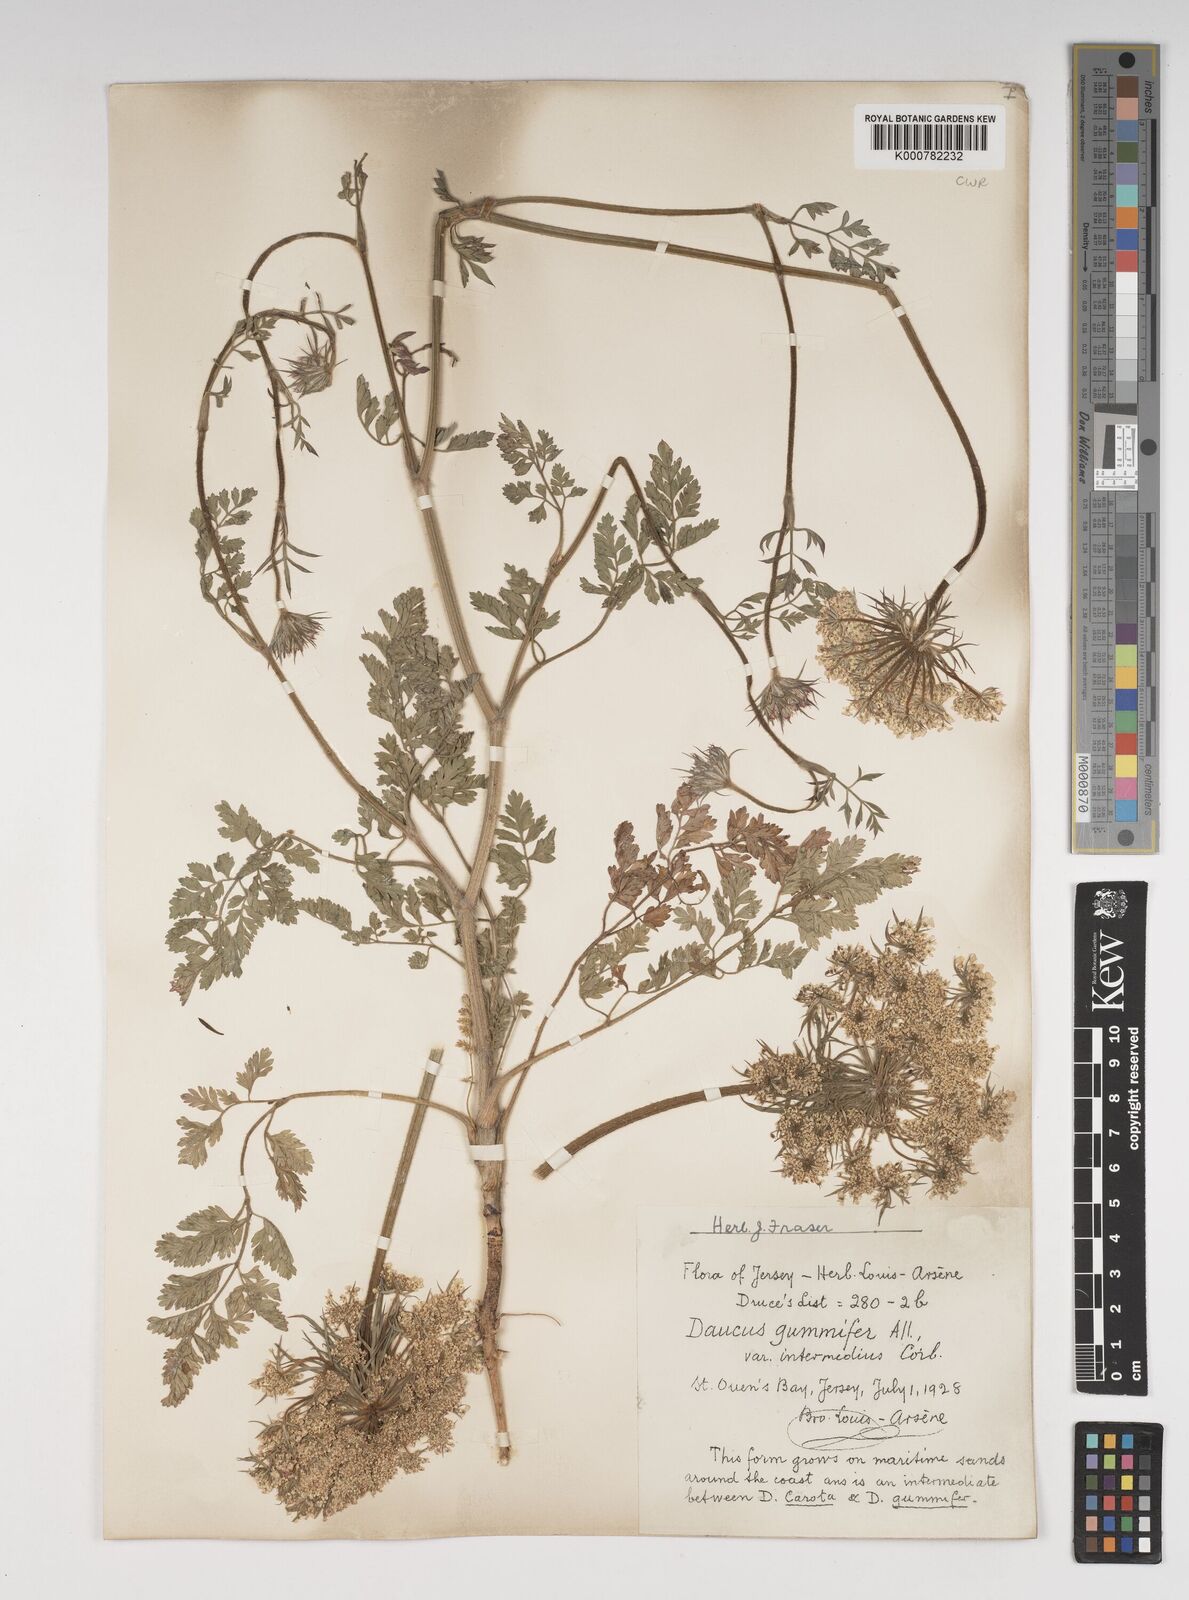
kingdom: Plantae
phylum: Tracheophyta
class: Magnoliopsida
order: Apiales
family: Apiaceae
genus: Daucus
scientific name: Daucus carota
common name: Wild carrot
